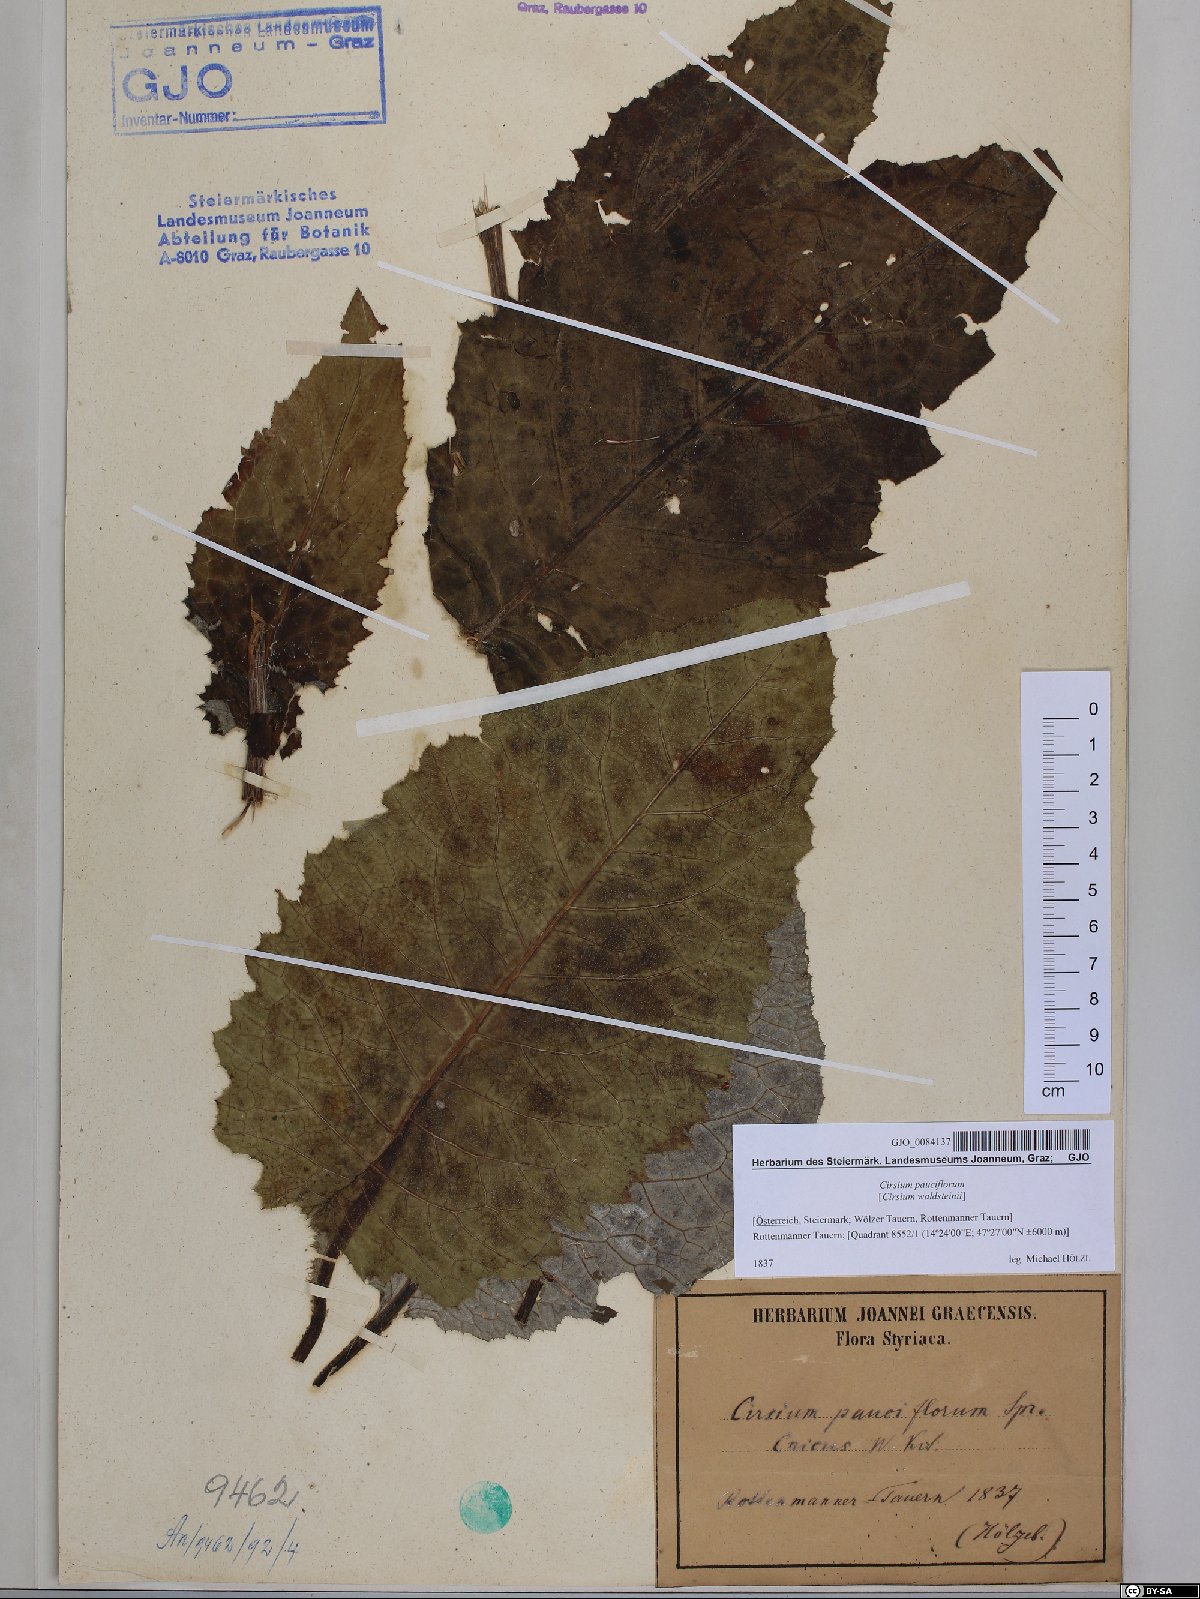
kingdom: Plantae
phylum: Tracheophyta
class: Magnoliopsida
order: Asterales
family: Asteraceae
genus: Cirsium
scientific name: Cirsium greimleri
